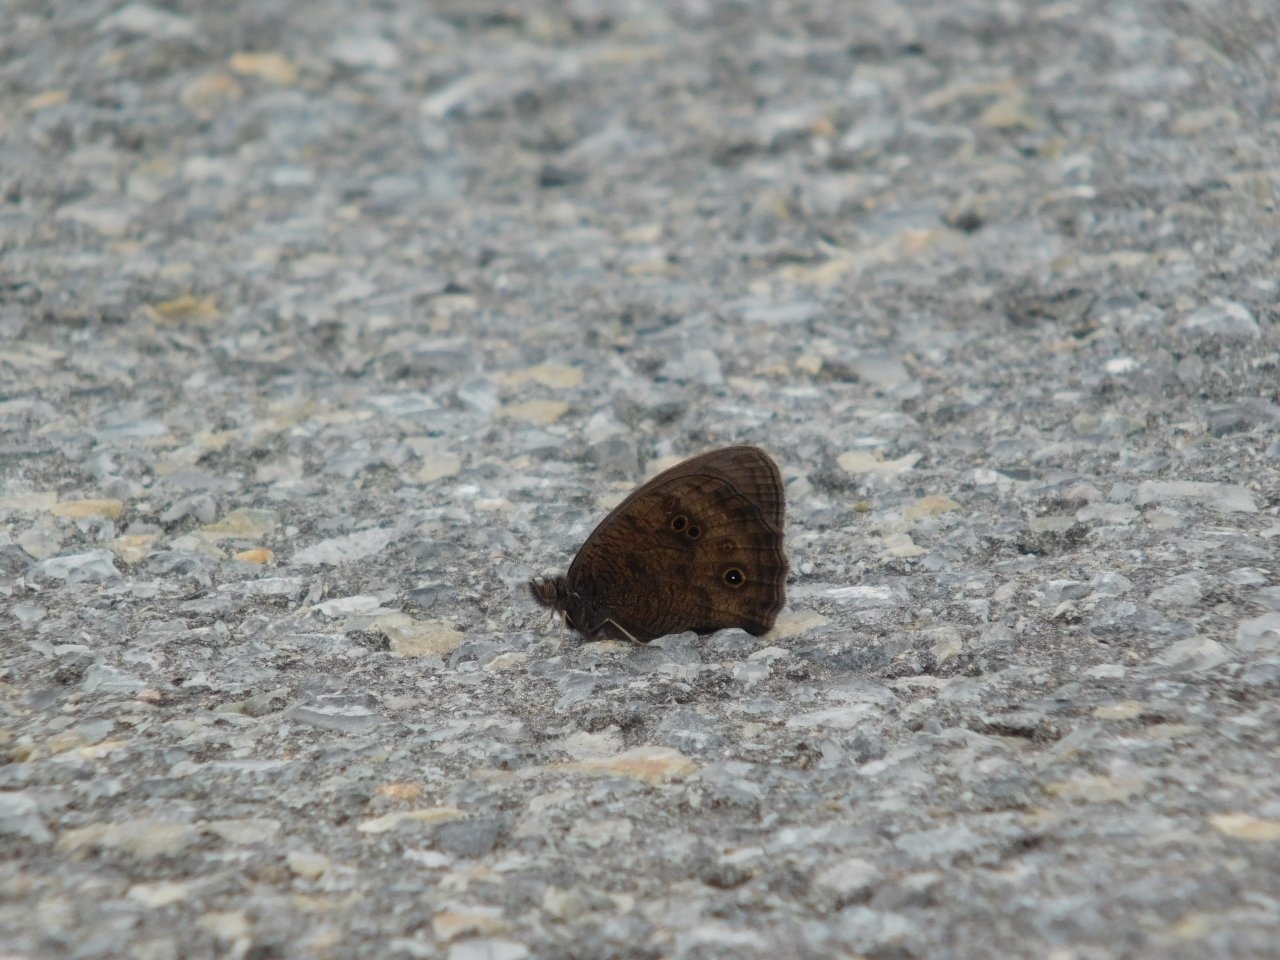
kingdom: Animalia
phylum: Arthropoda
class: Insecta
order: Lepidoptera
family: Nymphalidae
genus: Cercyonis
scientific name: Cercyonis pegala
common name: Common Wood-Nymph
